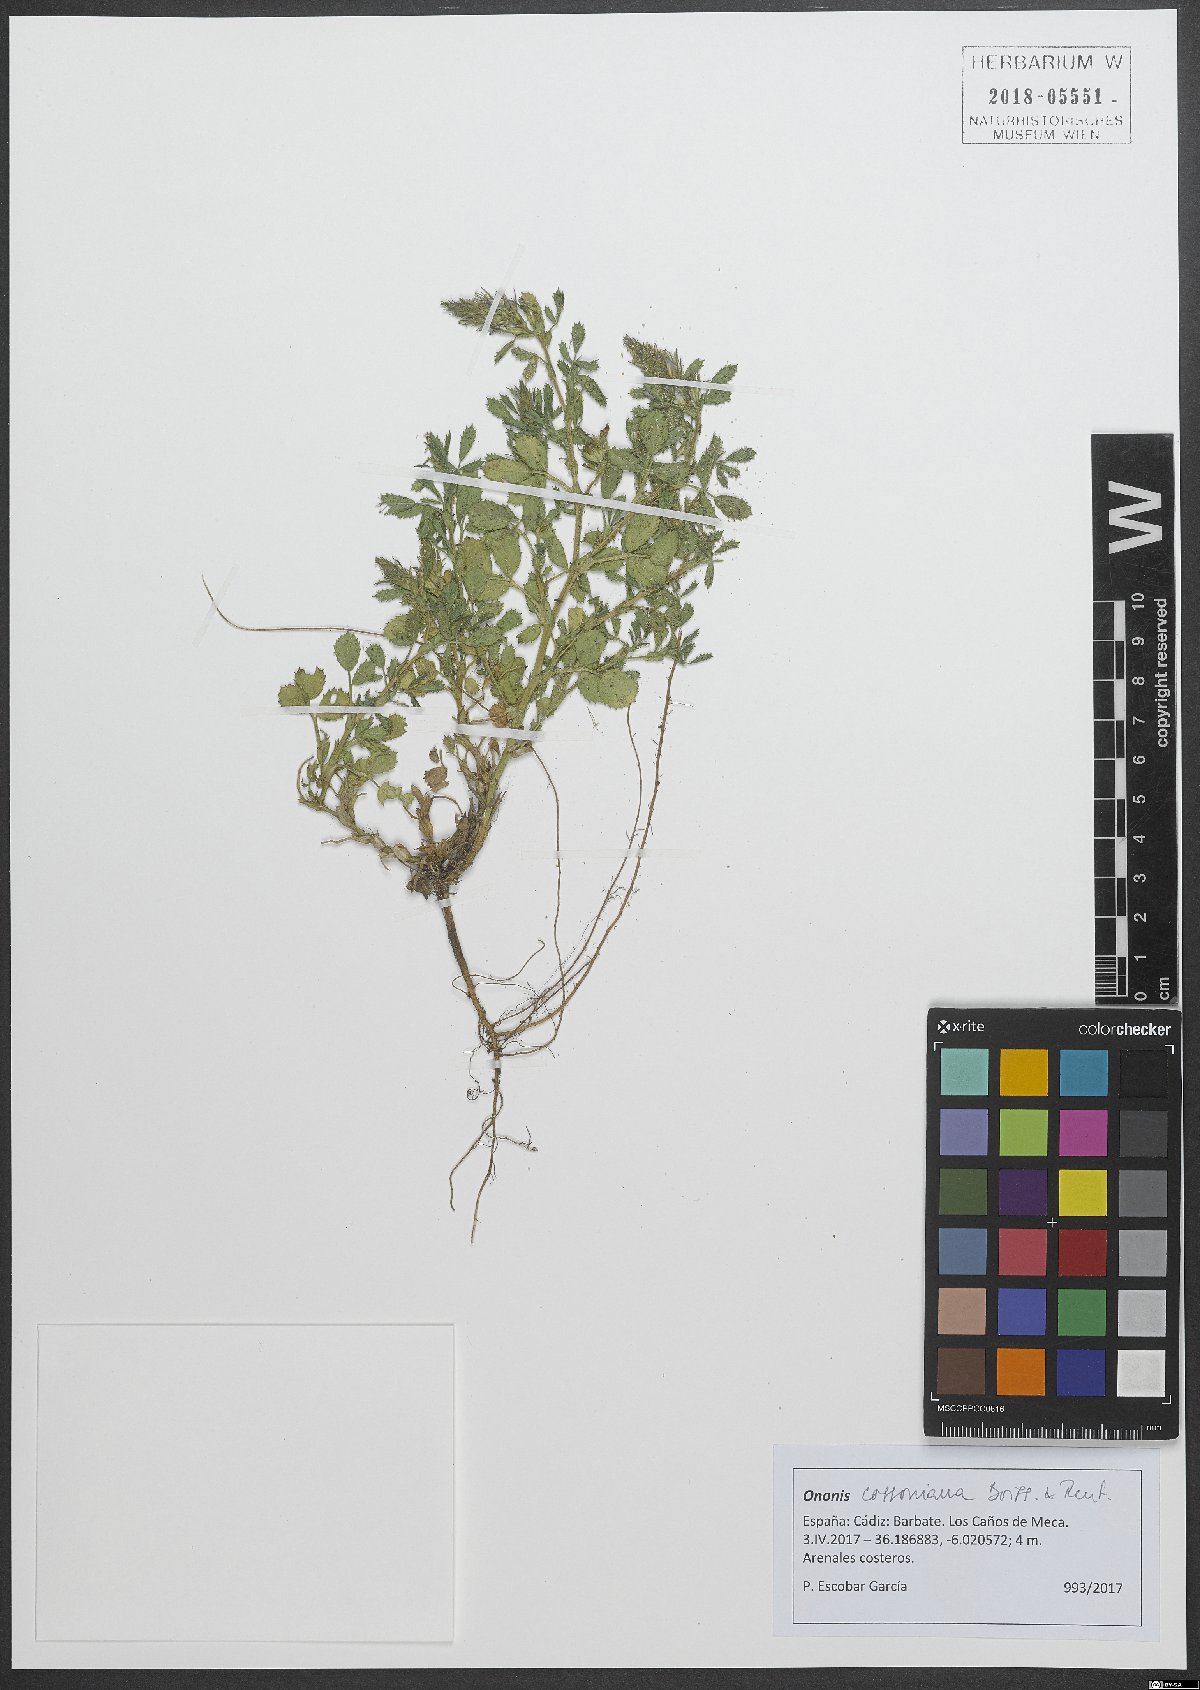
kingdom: Plantae
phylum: Tracheophyta
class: Magnoliopsida
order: Fabales
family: Fabaceae
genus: Ononis
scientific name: Ononis cossoniana
